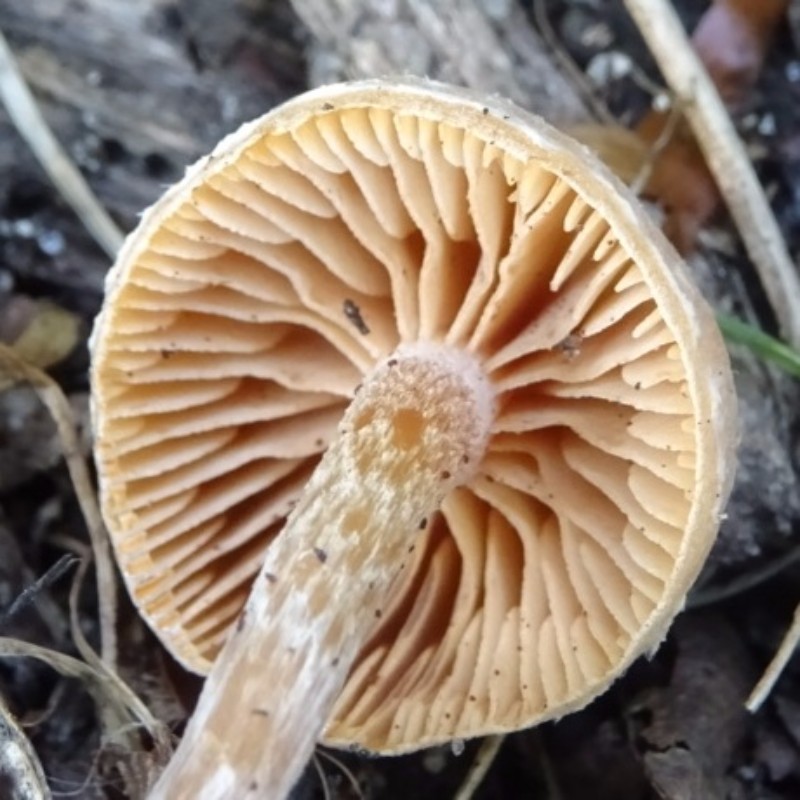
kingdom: Fungi
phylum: Basidiomycota
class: Agaricomycetes
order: Agaricales
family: Tubariaceae
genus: Tubaria
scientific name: Tubaria conspersa
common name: bleg fnughat
